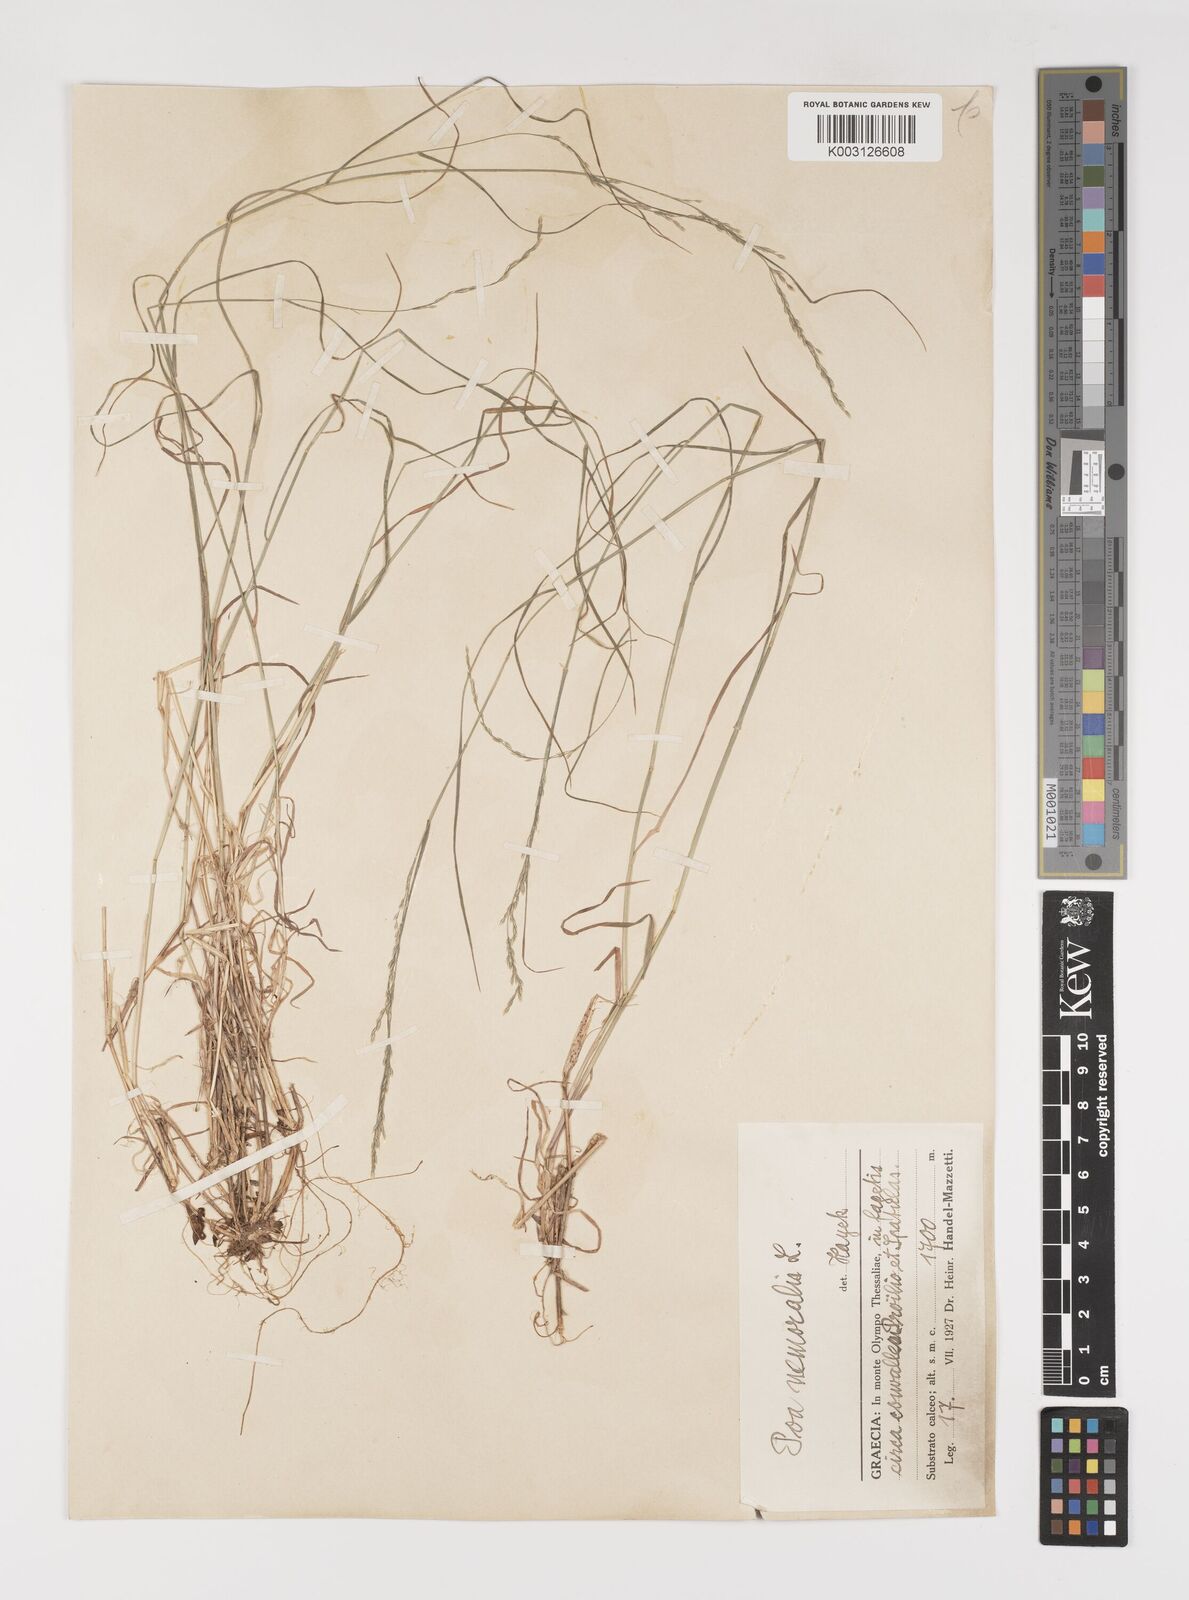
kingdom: Plantae
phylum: Tracheophyta
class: Liliopsida
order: Poales
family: Poaceae
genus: Poa
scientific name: Poa nemoralis
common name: Wood bluegrass
